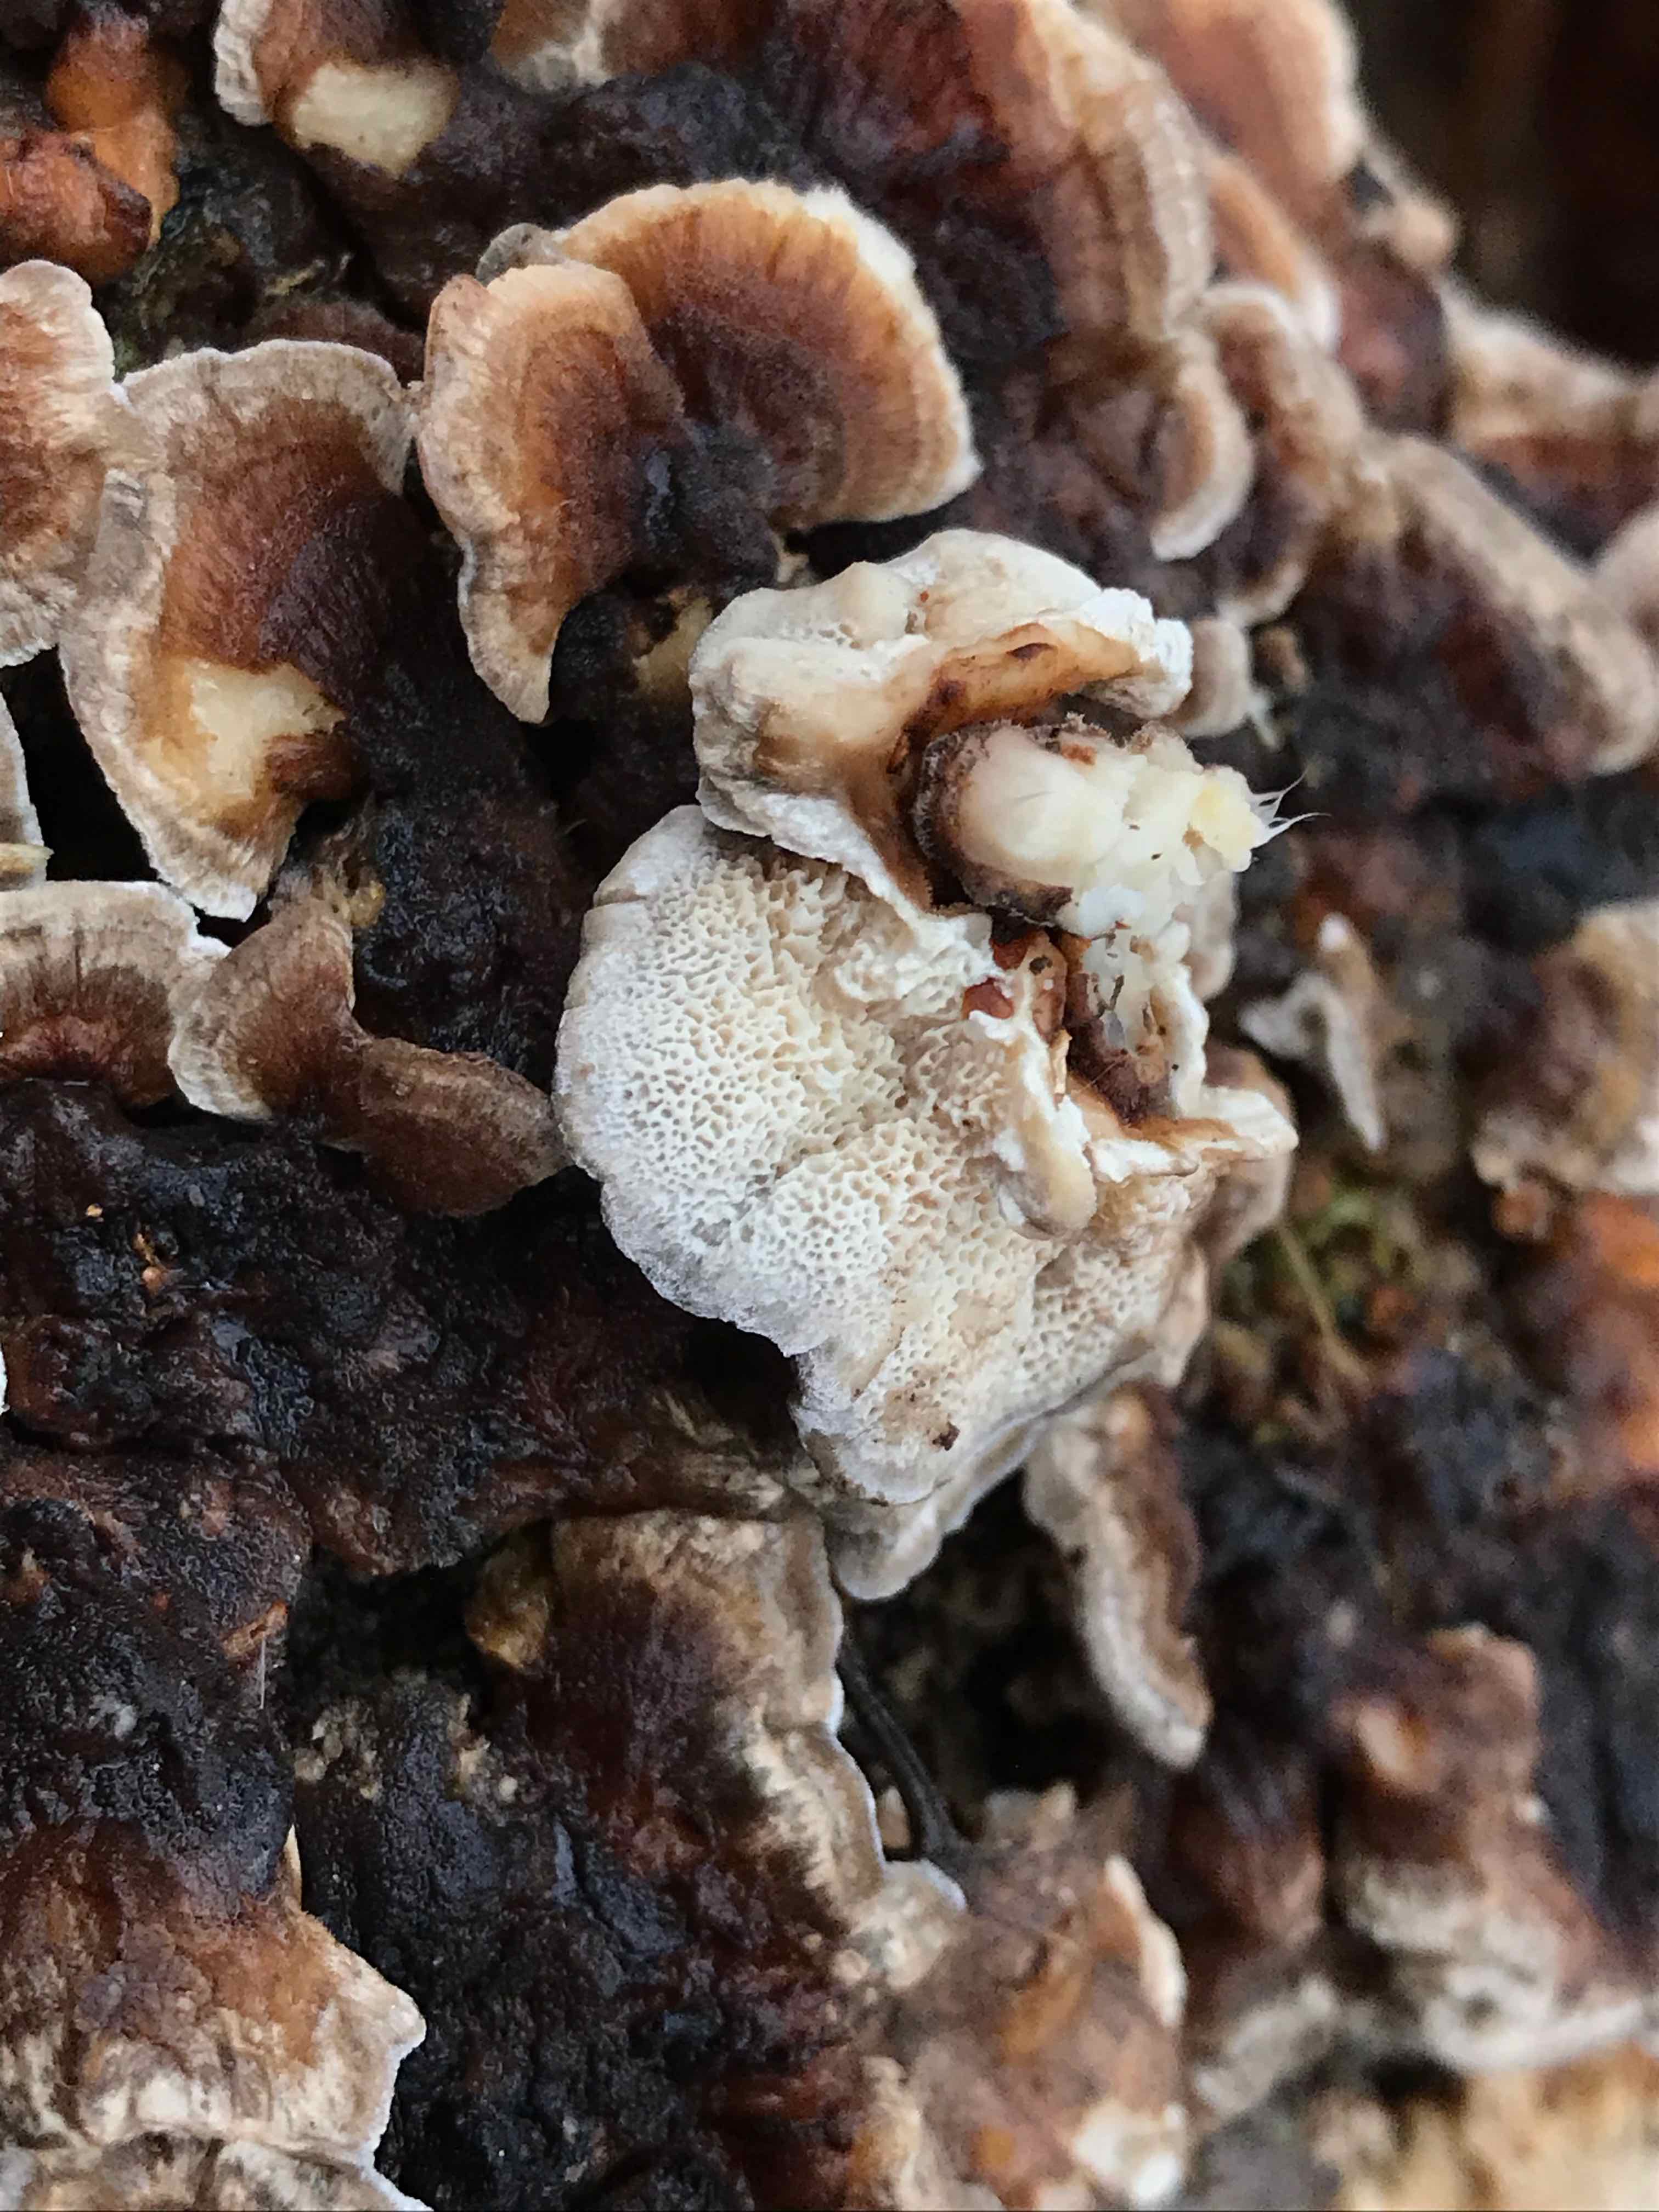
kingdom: Fungi
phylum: Basidiomycota
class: Agaricomycetes
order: Polyporales
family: Polyporaceae
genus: Trametes
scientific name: Trametes versicolor
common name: broget læderporesvamp
